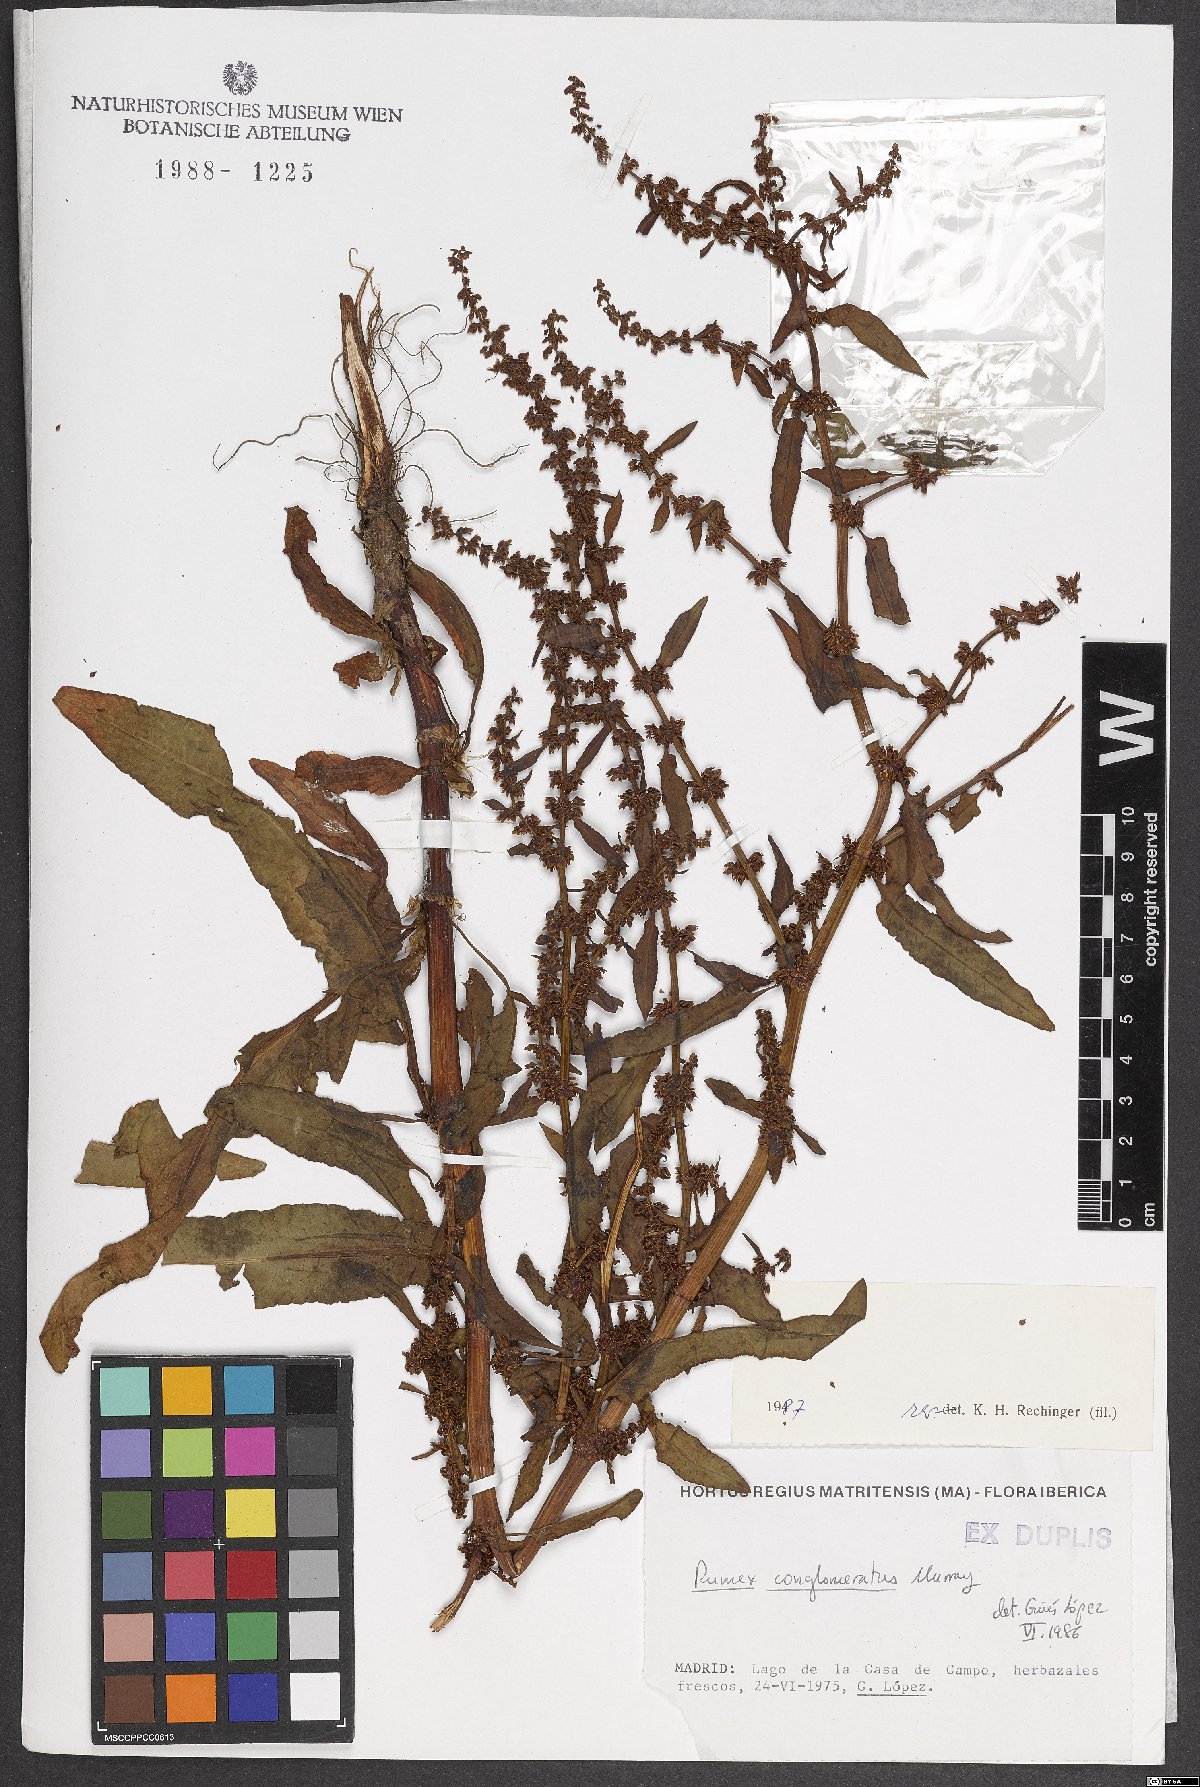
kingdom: Plantae
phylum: Tracheophyta
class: Magnoliopsida
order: Caryophyllales
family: Polygonaceae
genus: Rumex
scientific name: Rumex conglomeratus
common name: Clustered dock
